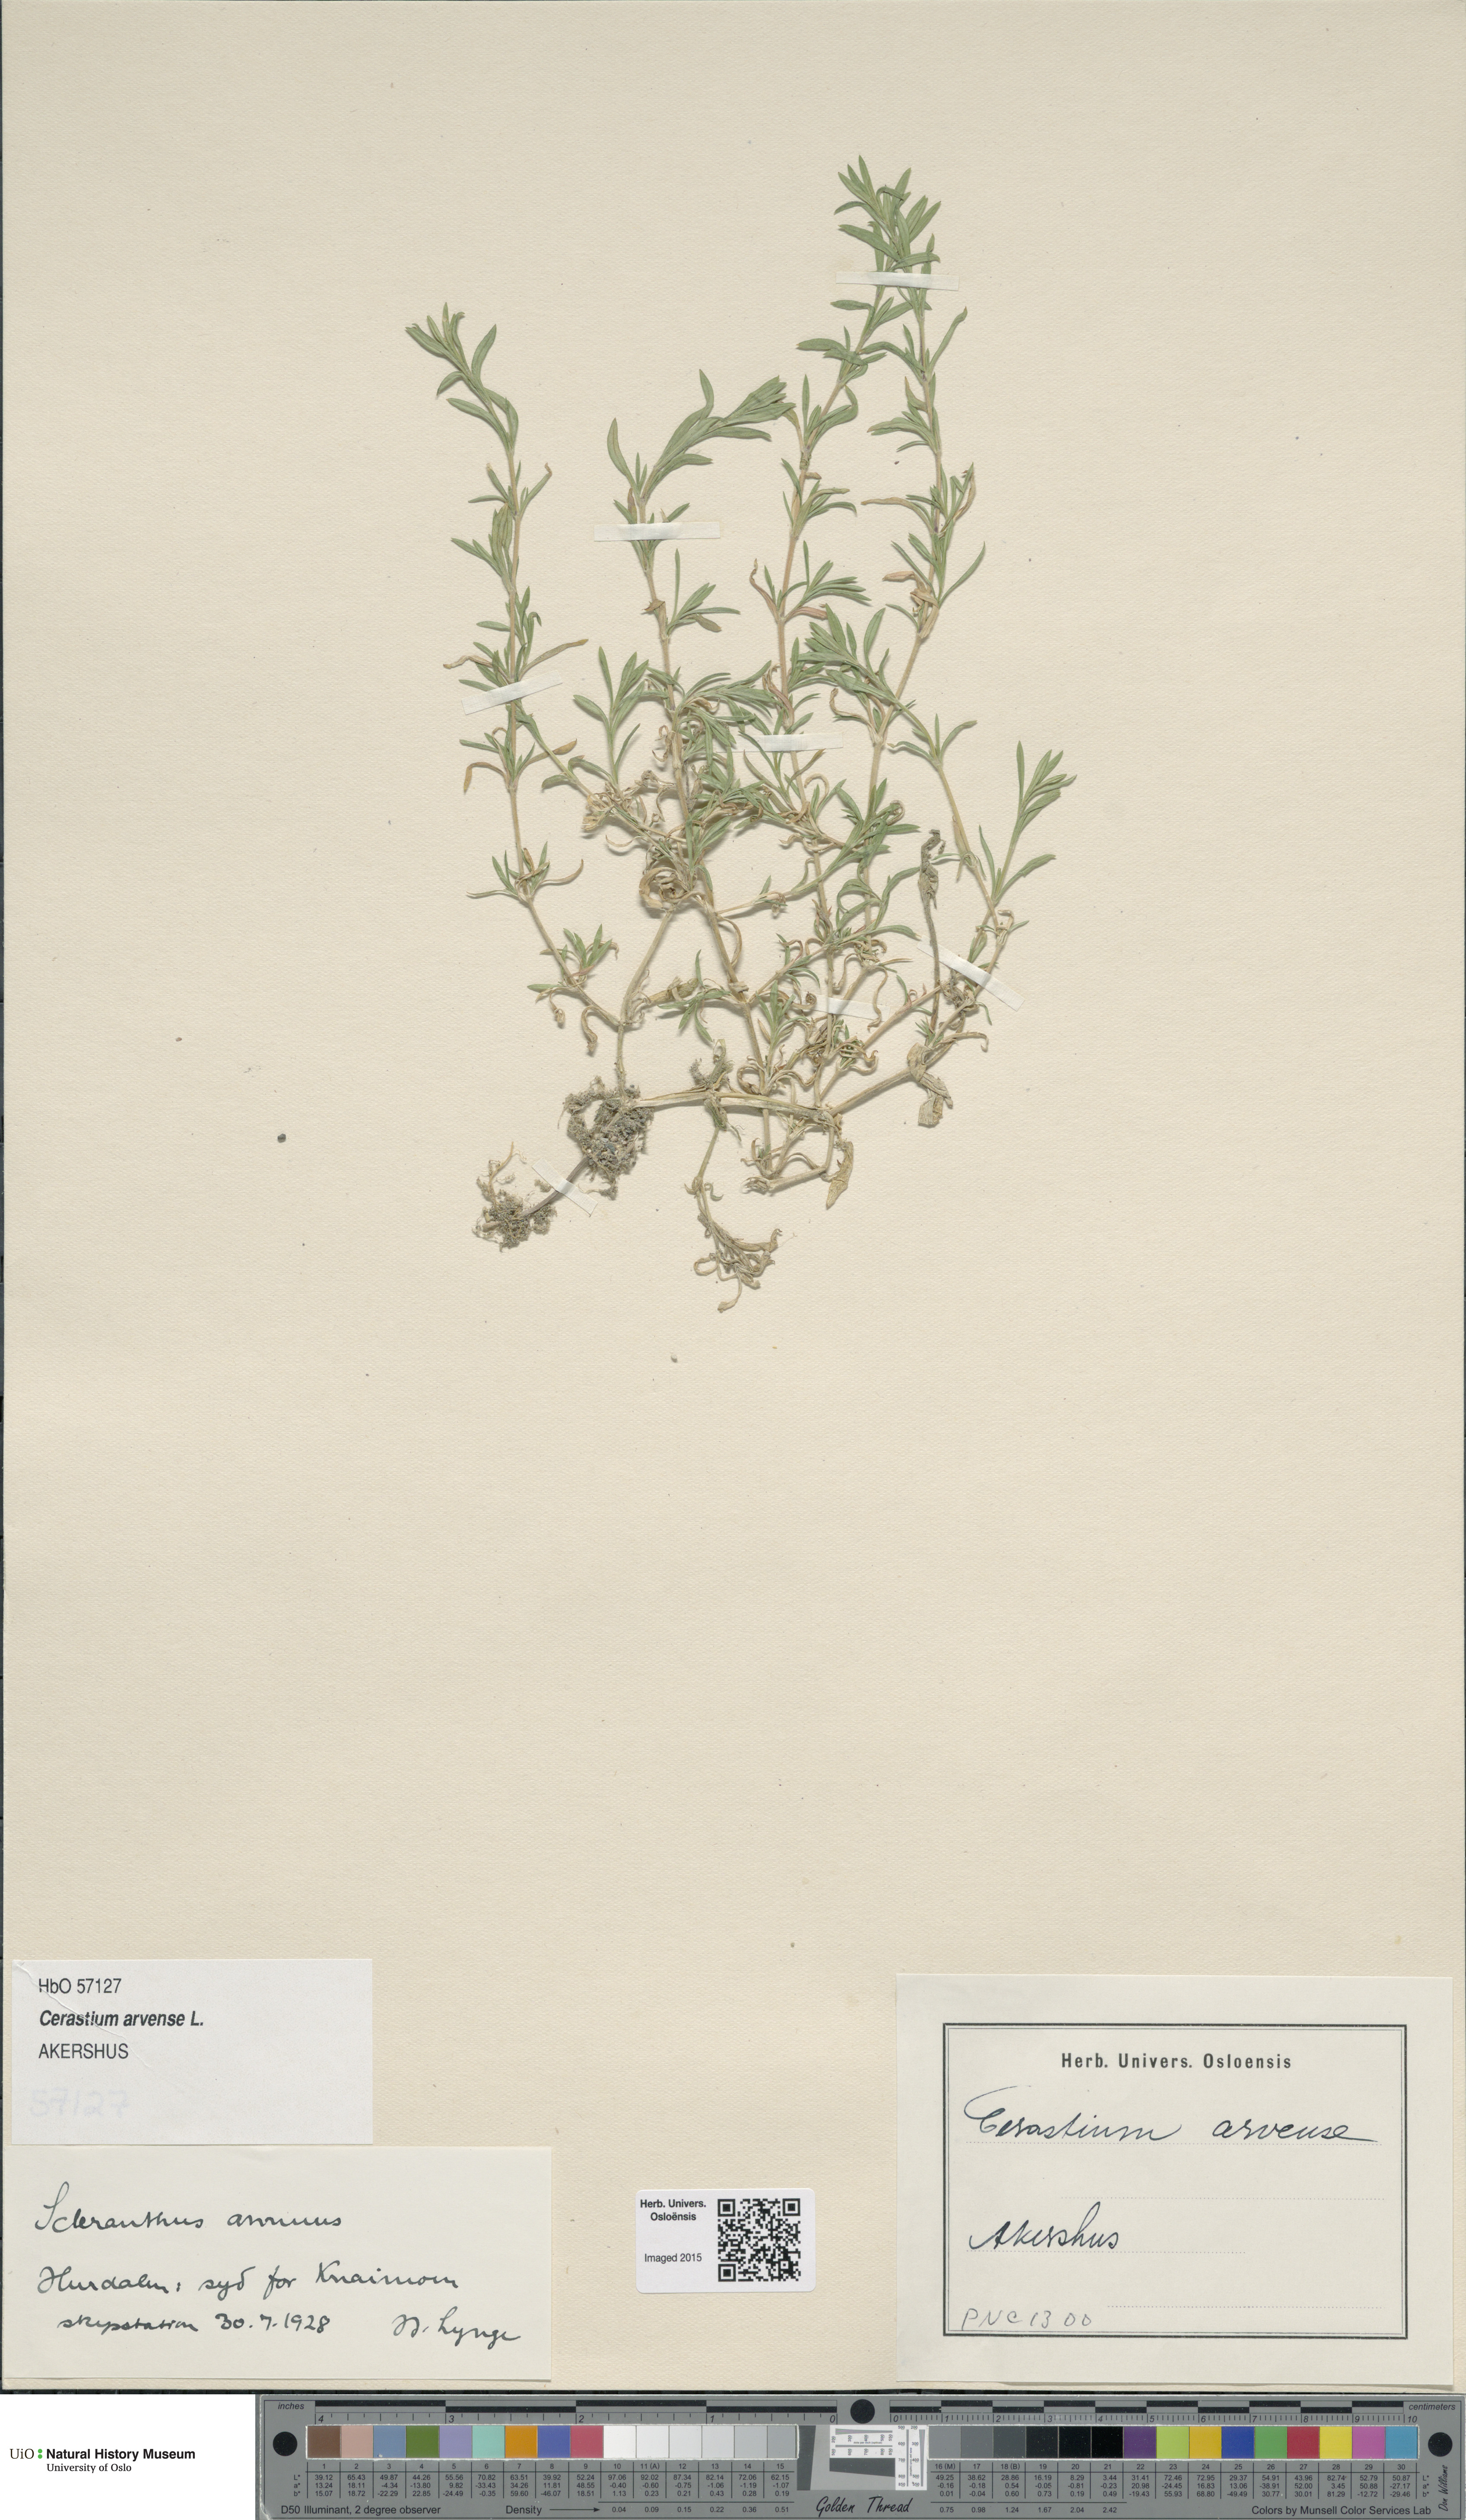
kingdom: Plantae
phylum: Tracheophyta
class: Magnoliopsida
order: Caryophyllales
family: Caryophyllaceae
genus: Cerastium
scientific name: Cerastium arvense
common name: Field mouse-ear
